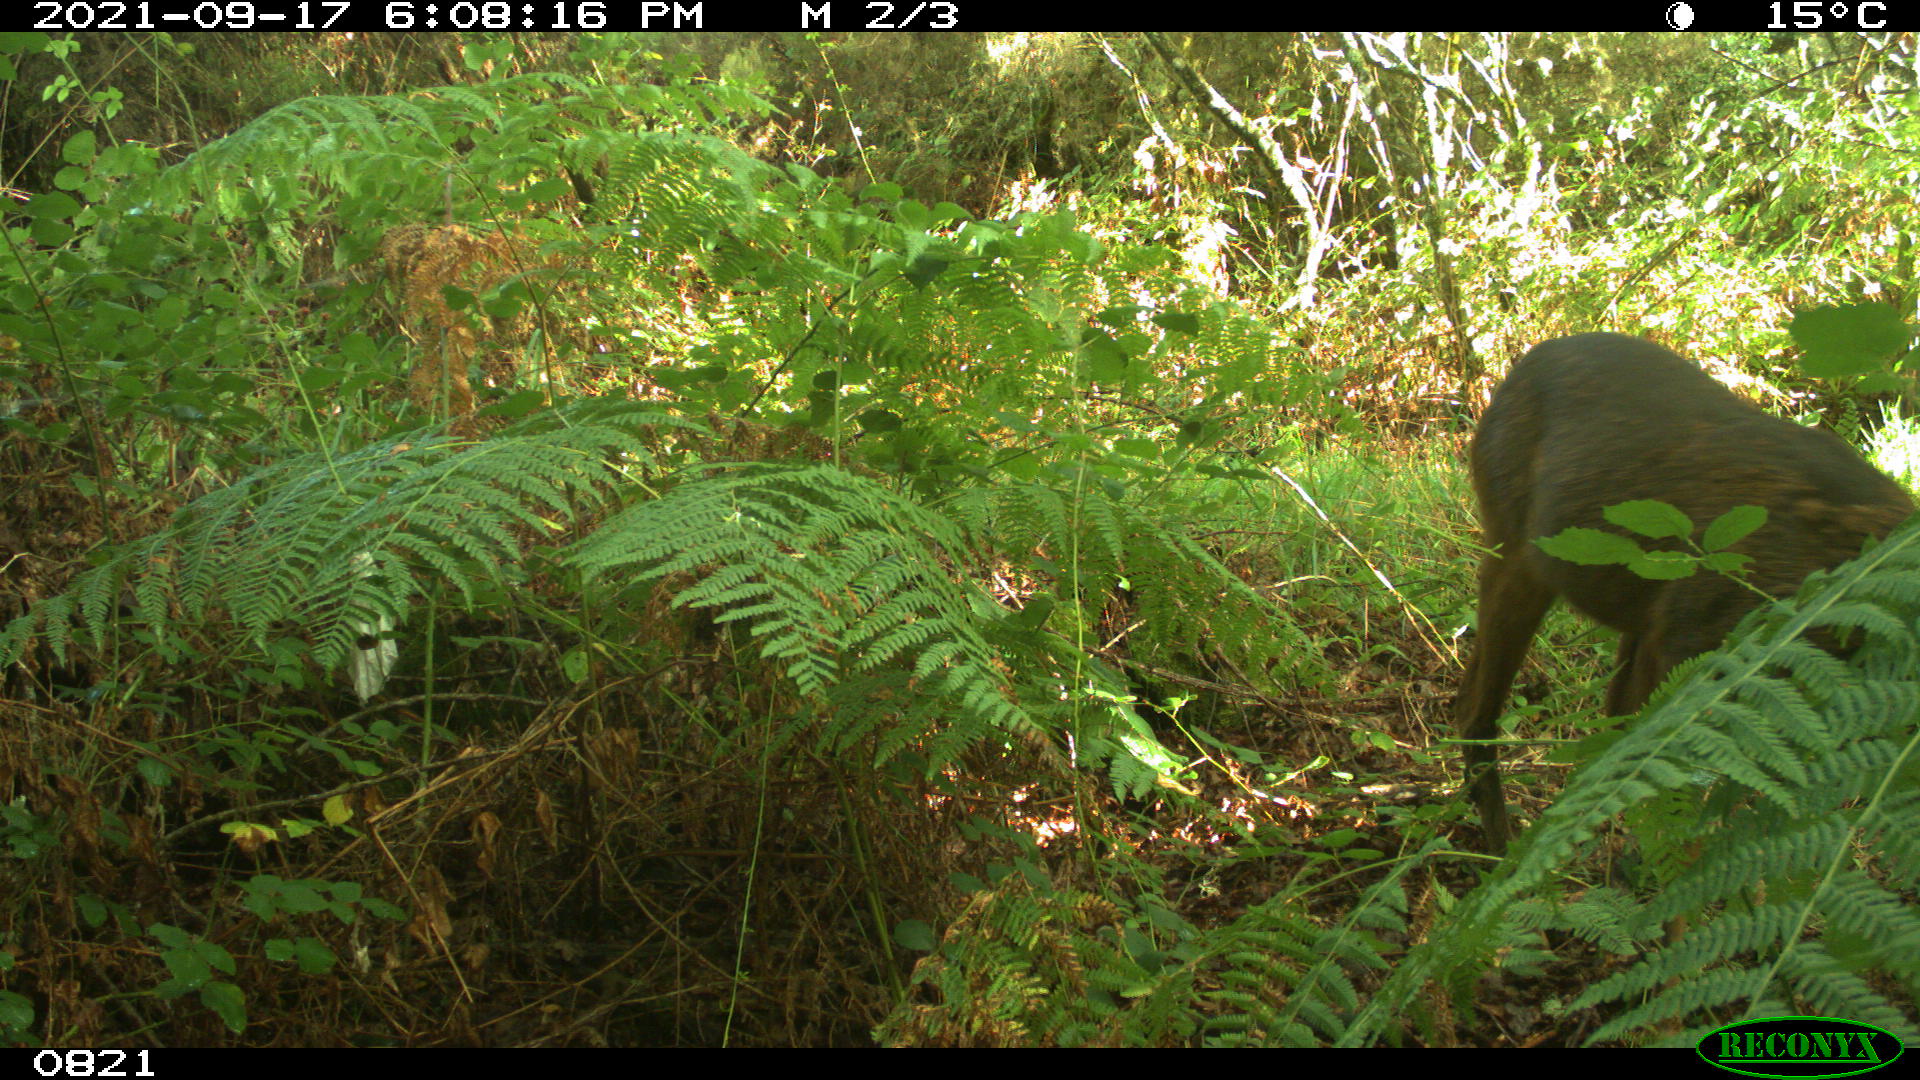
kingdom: Animalia
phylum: Chordata
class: Mammalia
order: Artiodactyla
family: Cervidae
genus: Capreolus
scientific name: Capreolus capreolus
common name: Western roe deer
